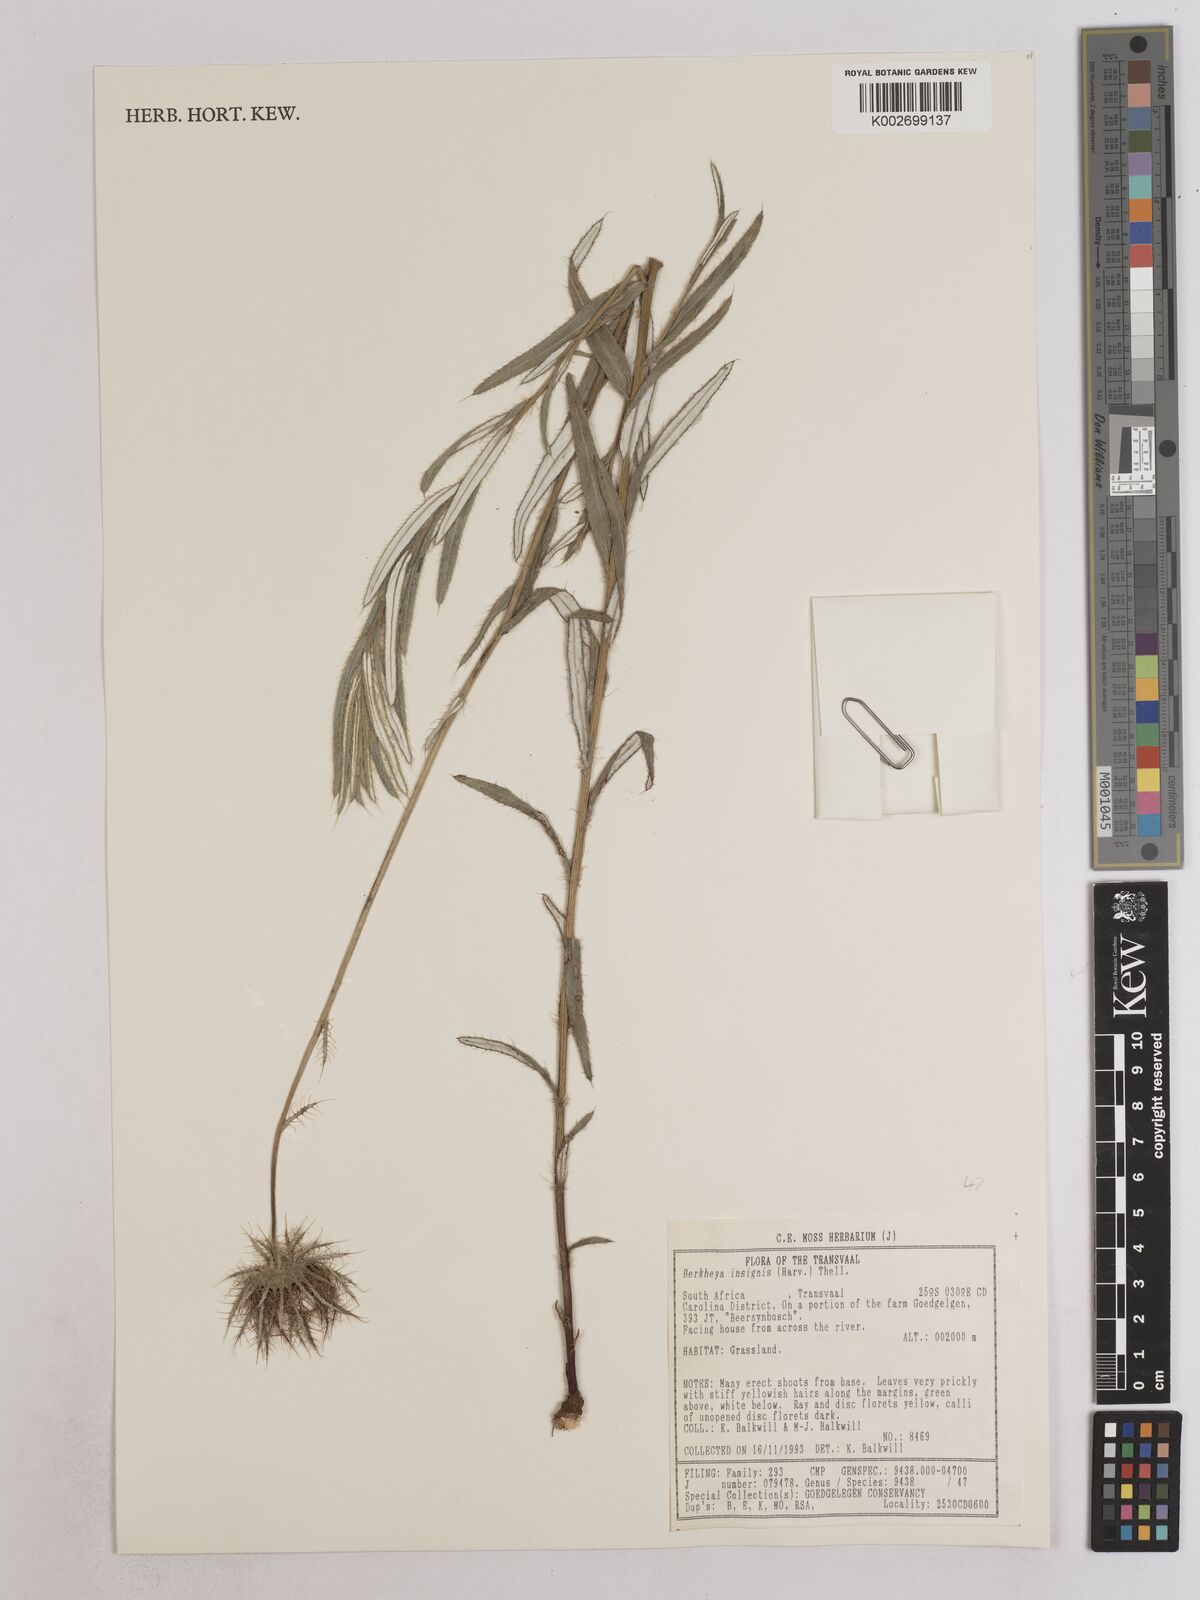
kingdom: Plantae
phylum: Tracheophyta
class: Magnoliopsida
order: Asterales
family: Asteraceae
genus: Berkheya
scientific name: Berkheya insignis
